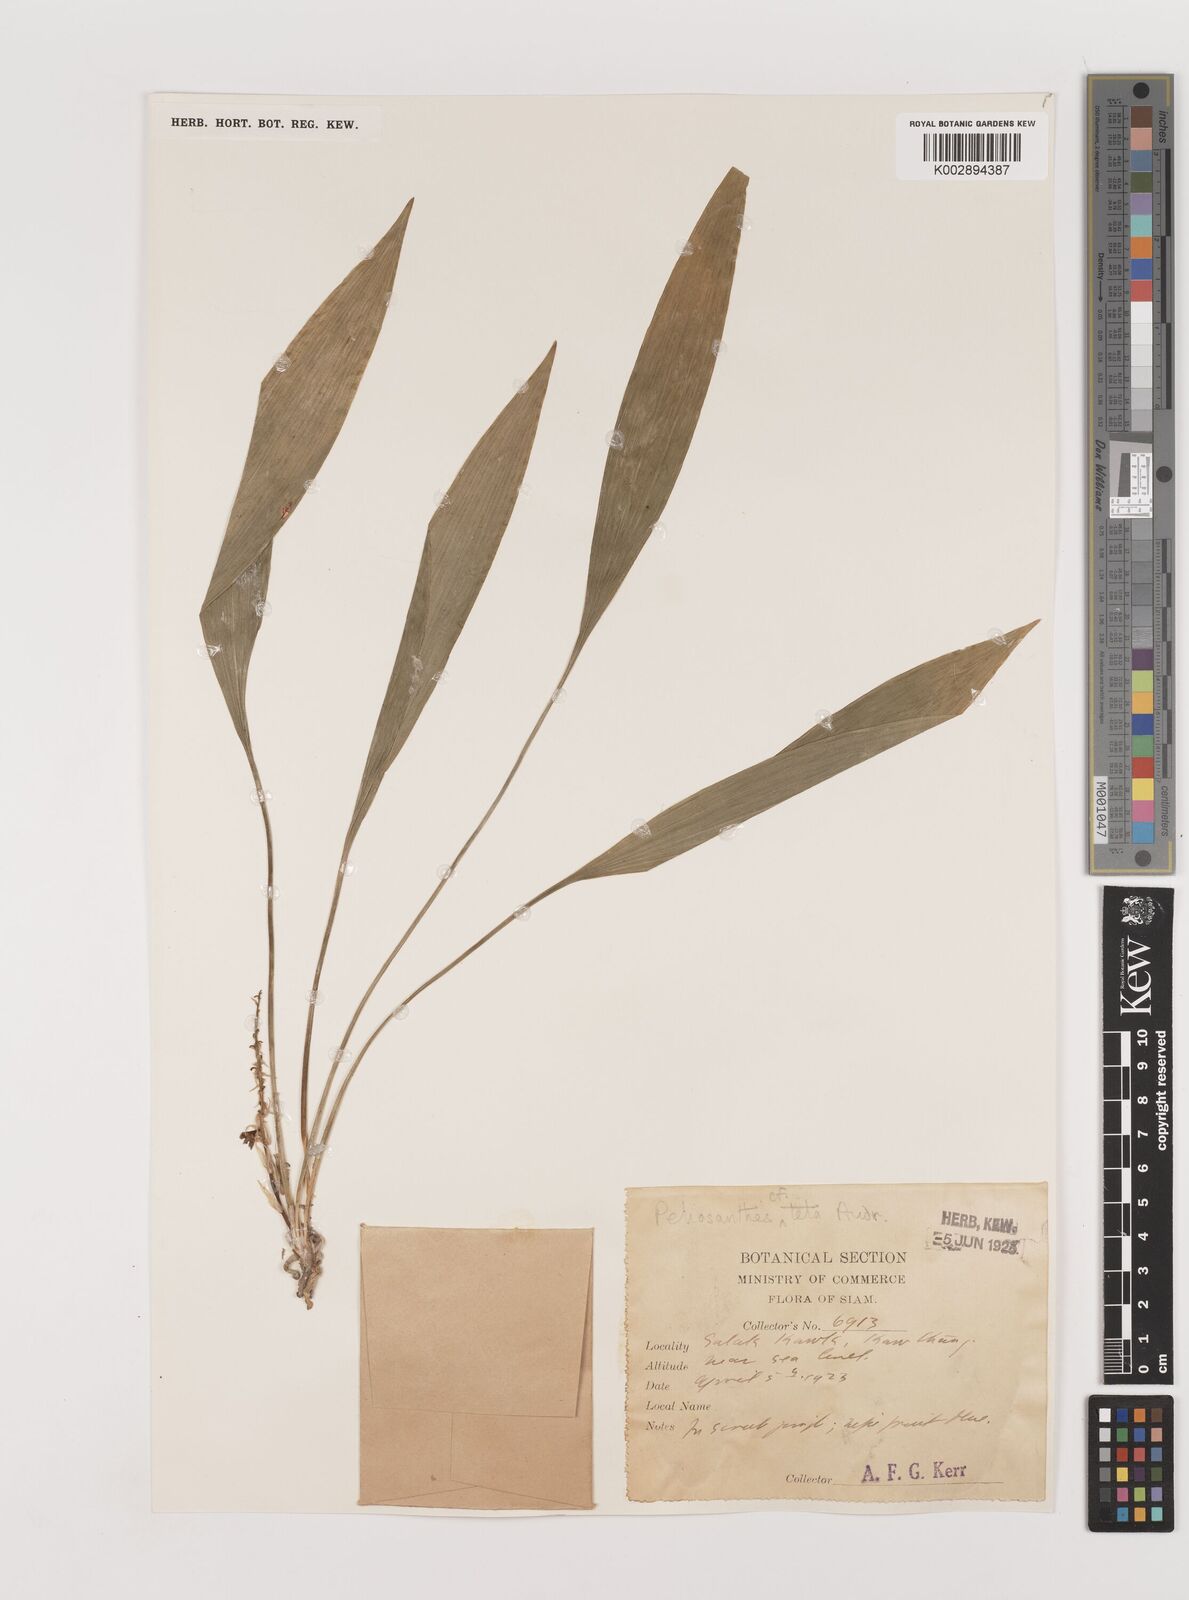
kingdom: Plantae
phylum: Tracheophyta
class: Liliopsida
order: Asparagales
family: Asparagaceae
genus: Peliosanthes
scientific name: Peliosanthes teta
